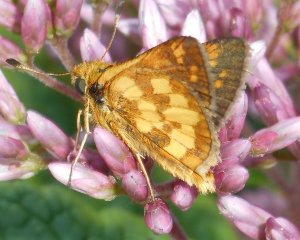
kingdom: Animalia
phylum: Arthropoda
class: Insecta
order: Lepidoptera
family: Hesperiidae
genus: Polites
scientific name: Polites coras
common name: Peck's Skipper
